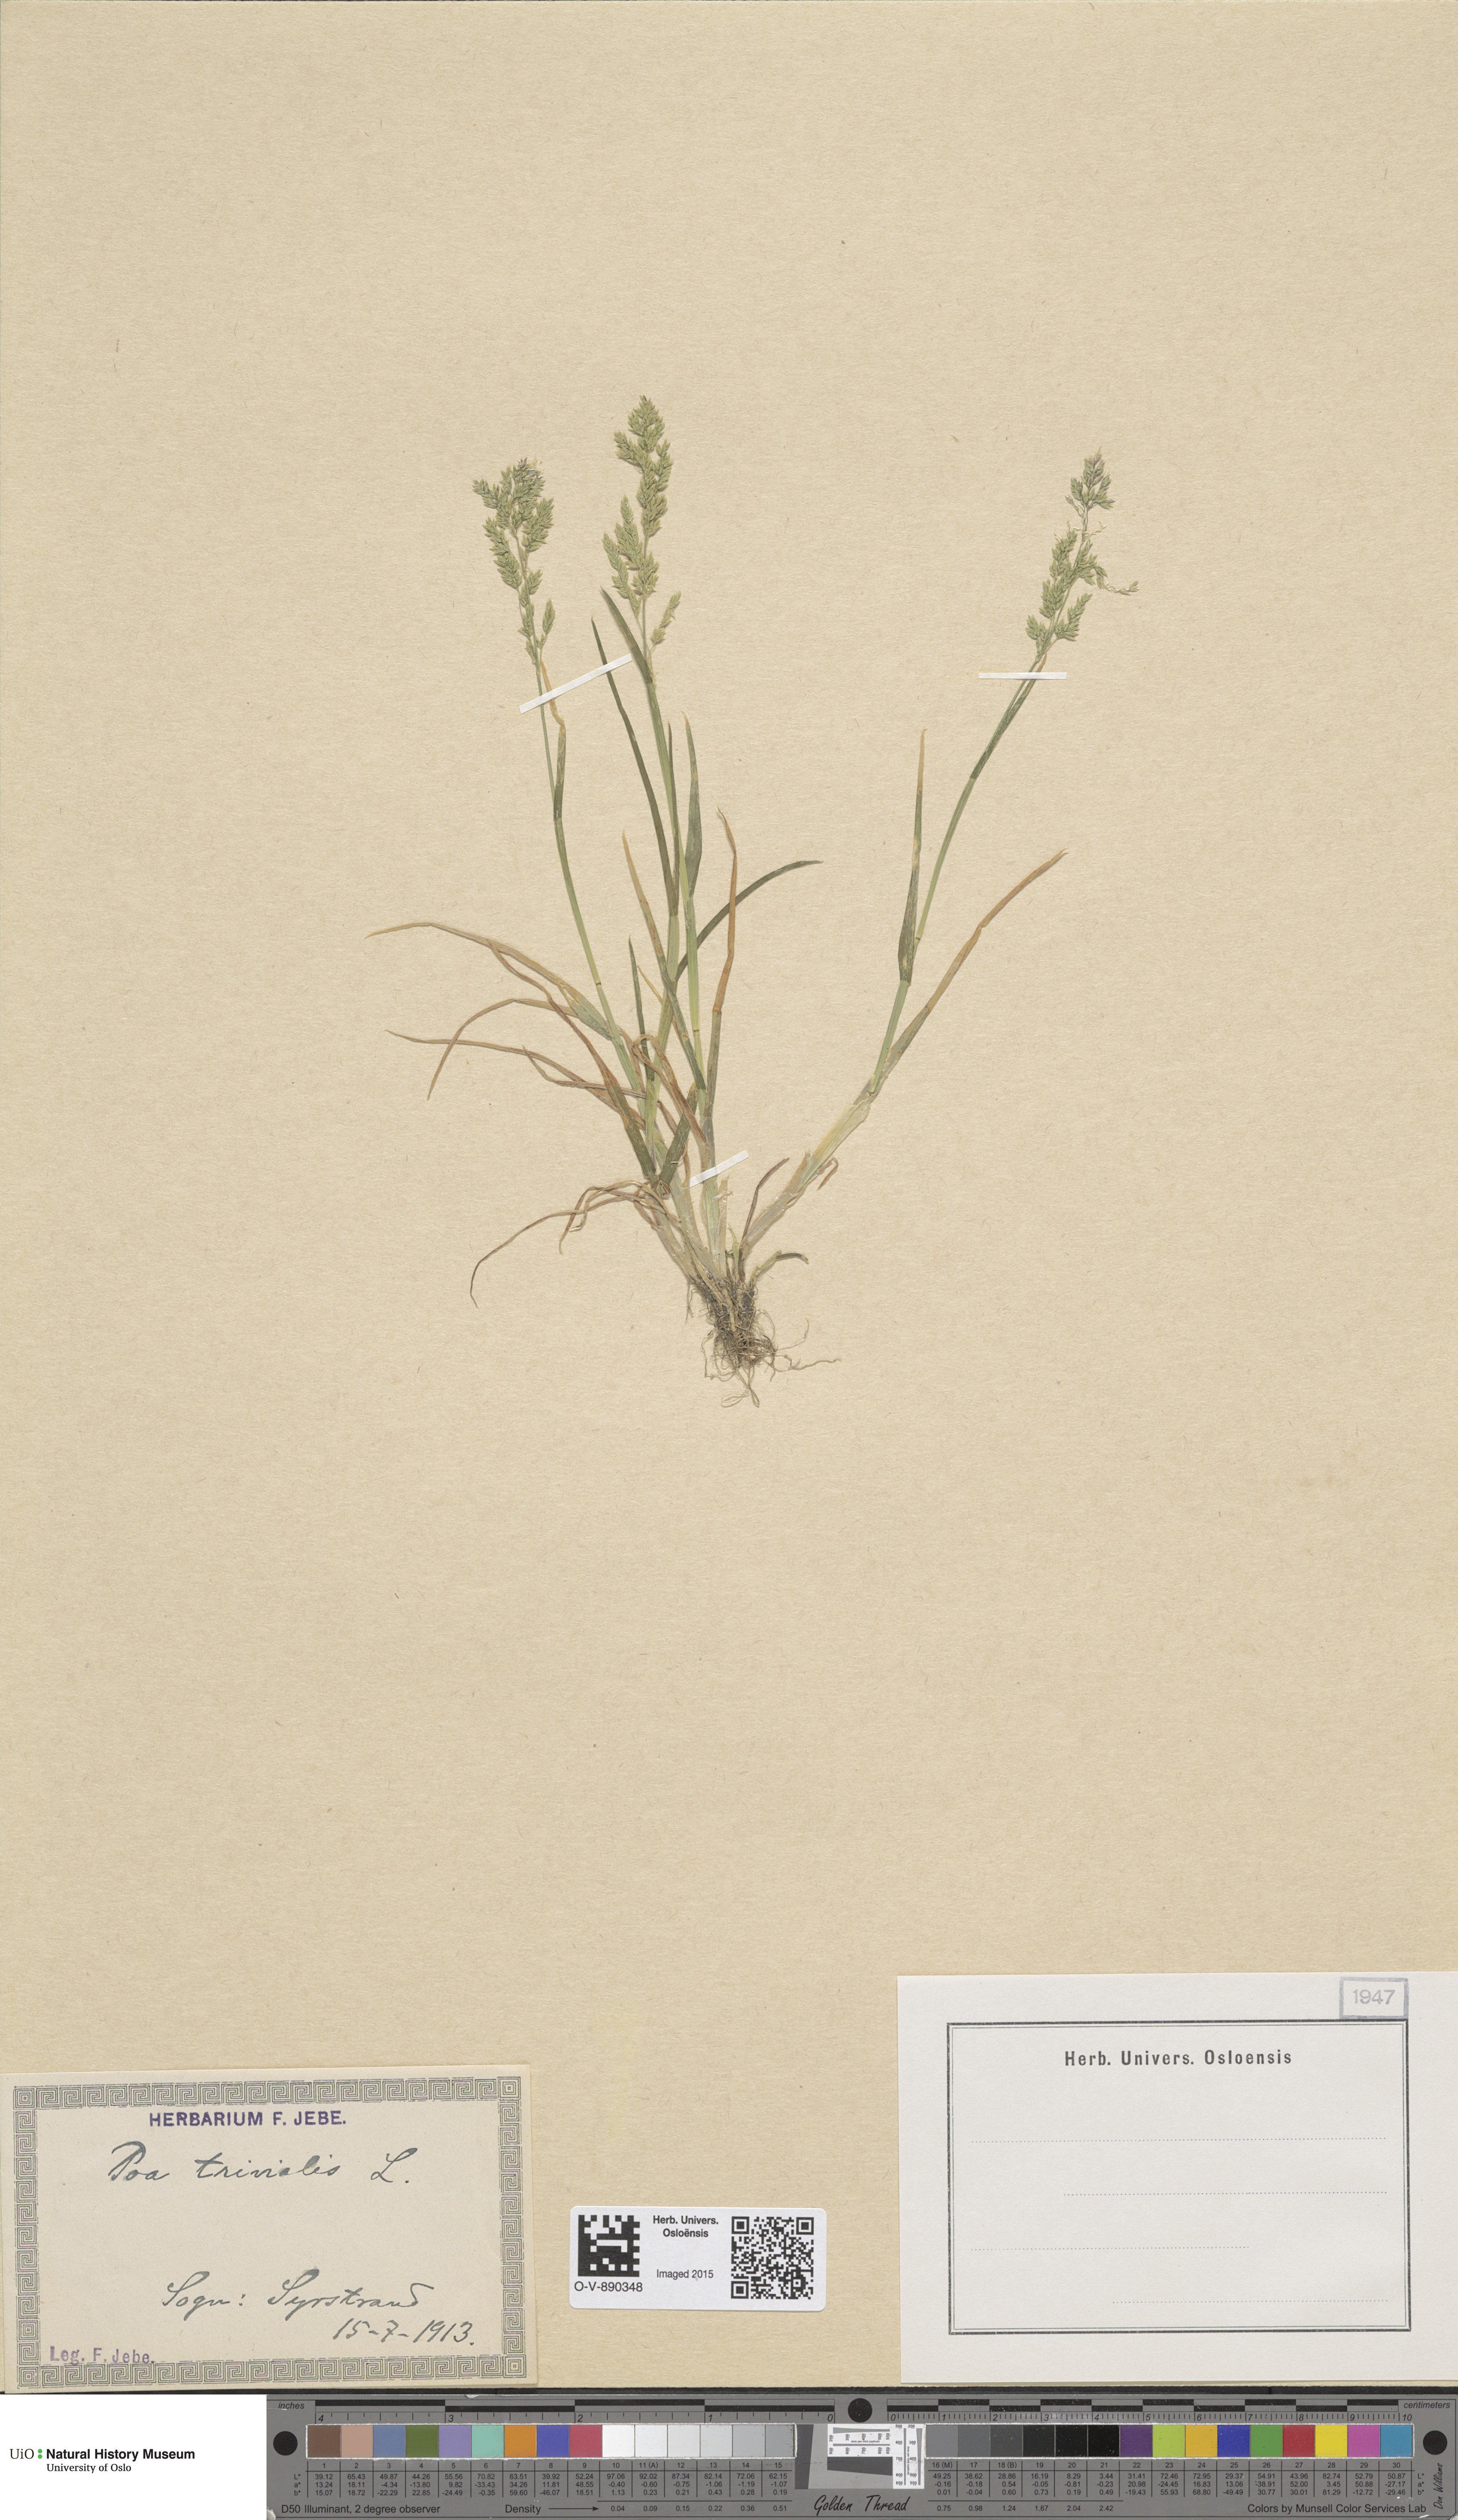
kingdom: Plantae
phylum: Tracheophyta
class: Liliopsida
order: Poales
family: Poaceae
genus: Poa
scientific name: Poa trivialis
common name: Rough bluegrass
